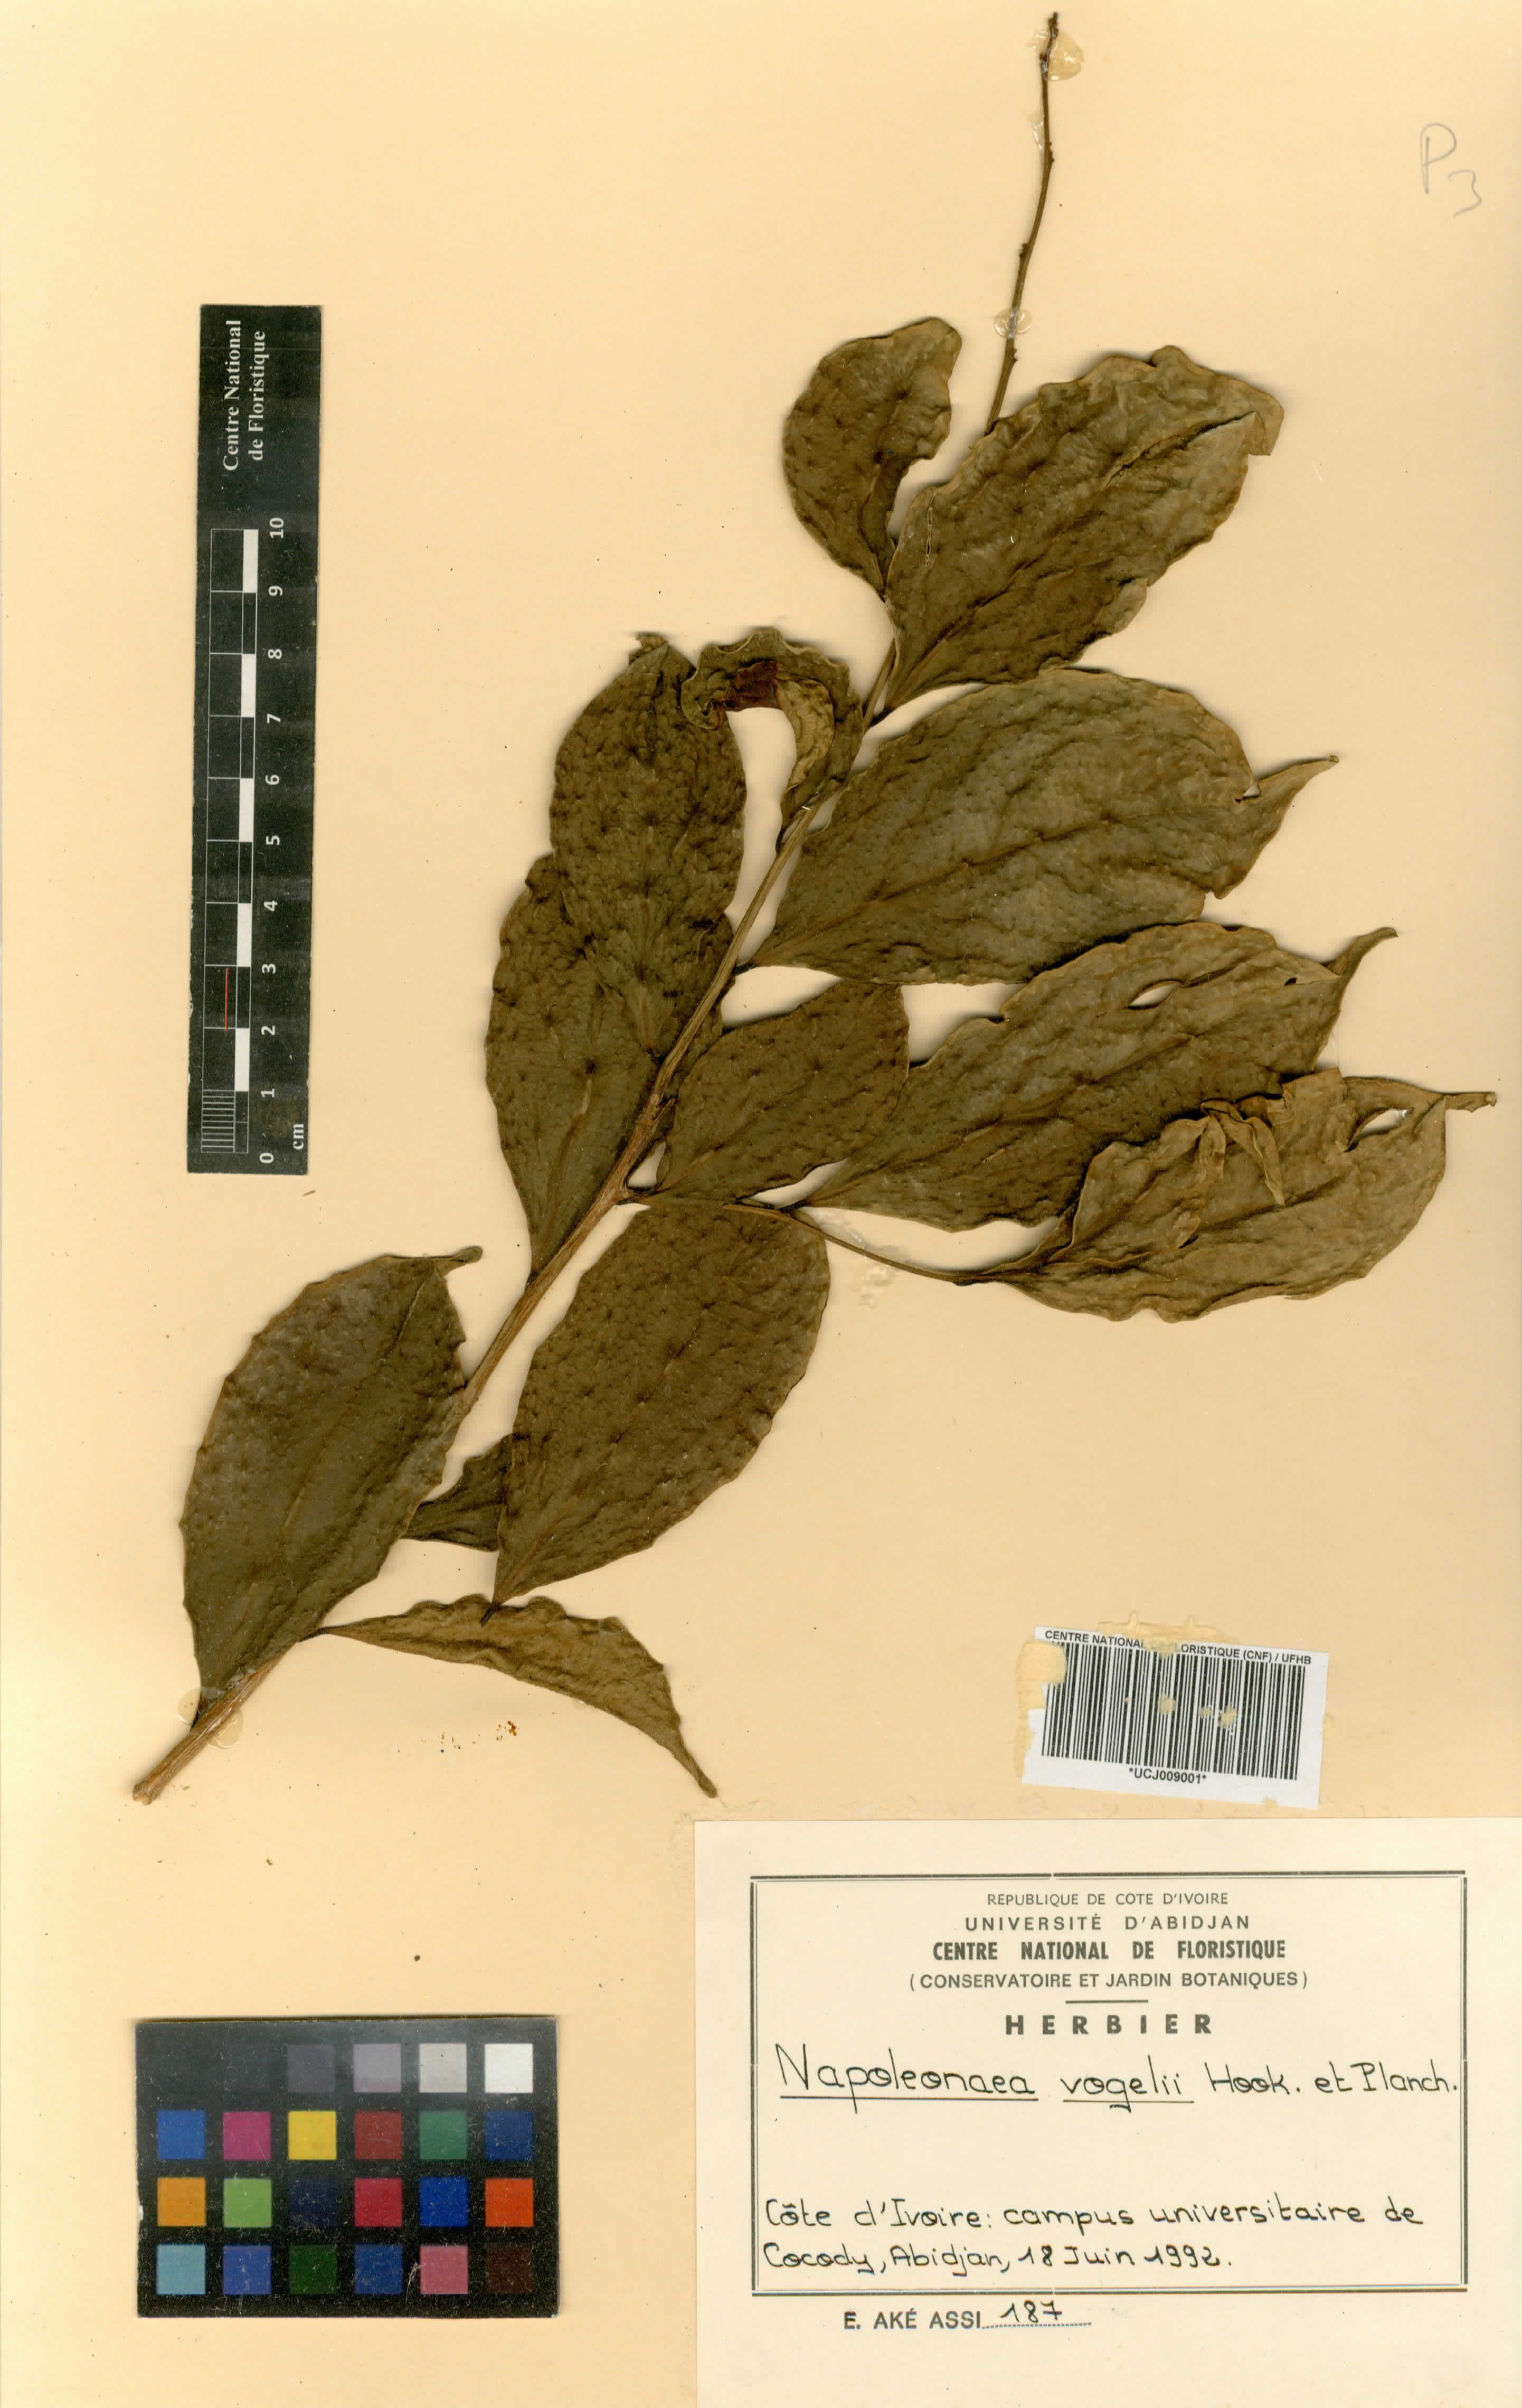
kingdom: Plantae
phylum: Tracheophyta
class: Magnoliopsida
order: Ericales
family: Lecythidaceae
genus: Napoleonaea
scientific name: Napoleonaea vogelii
